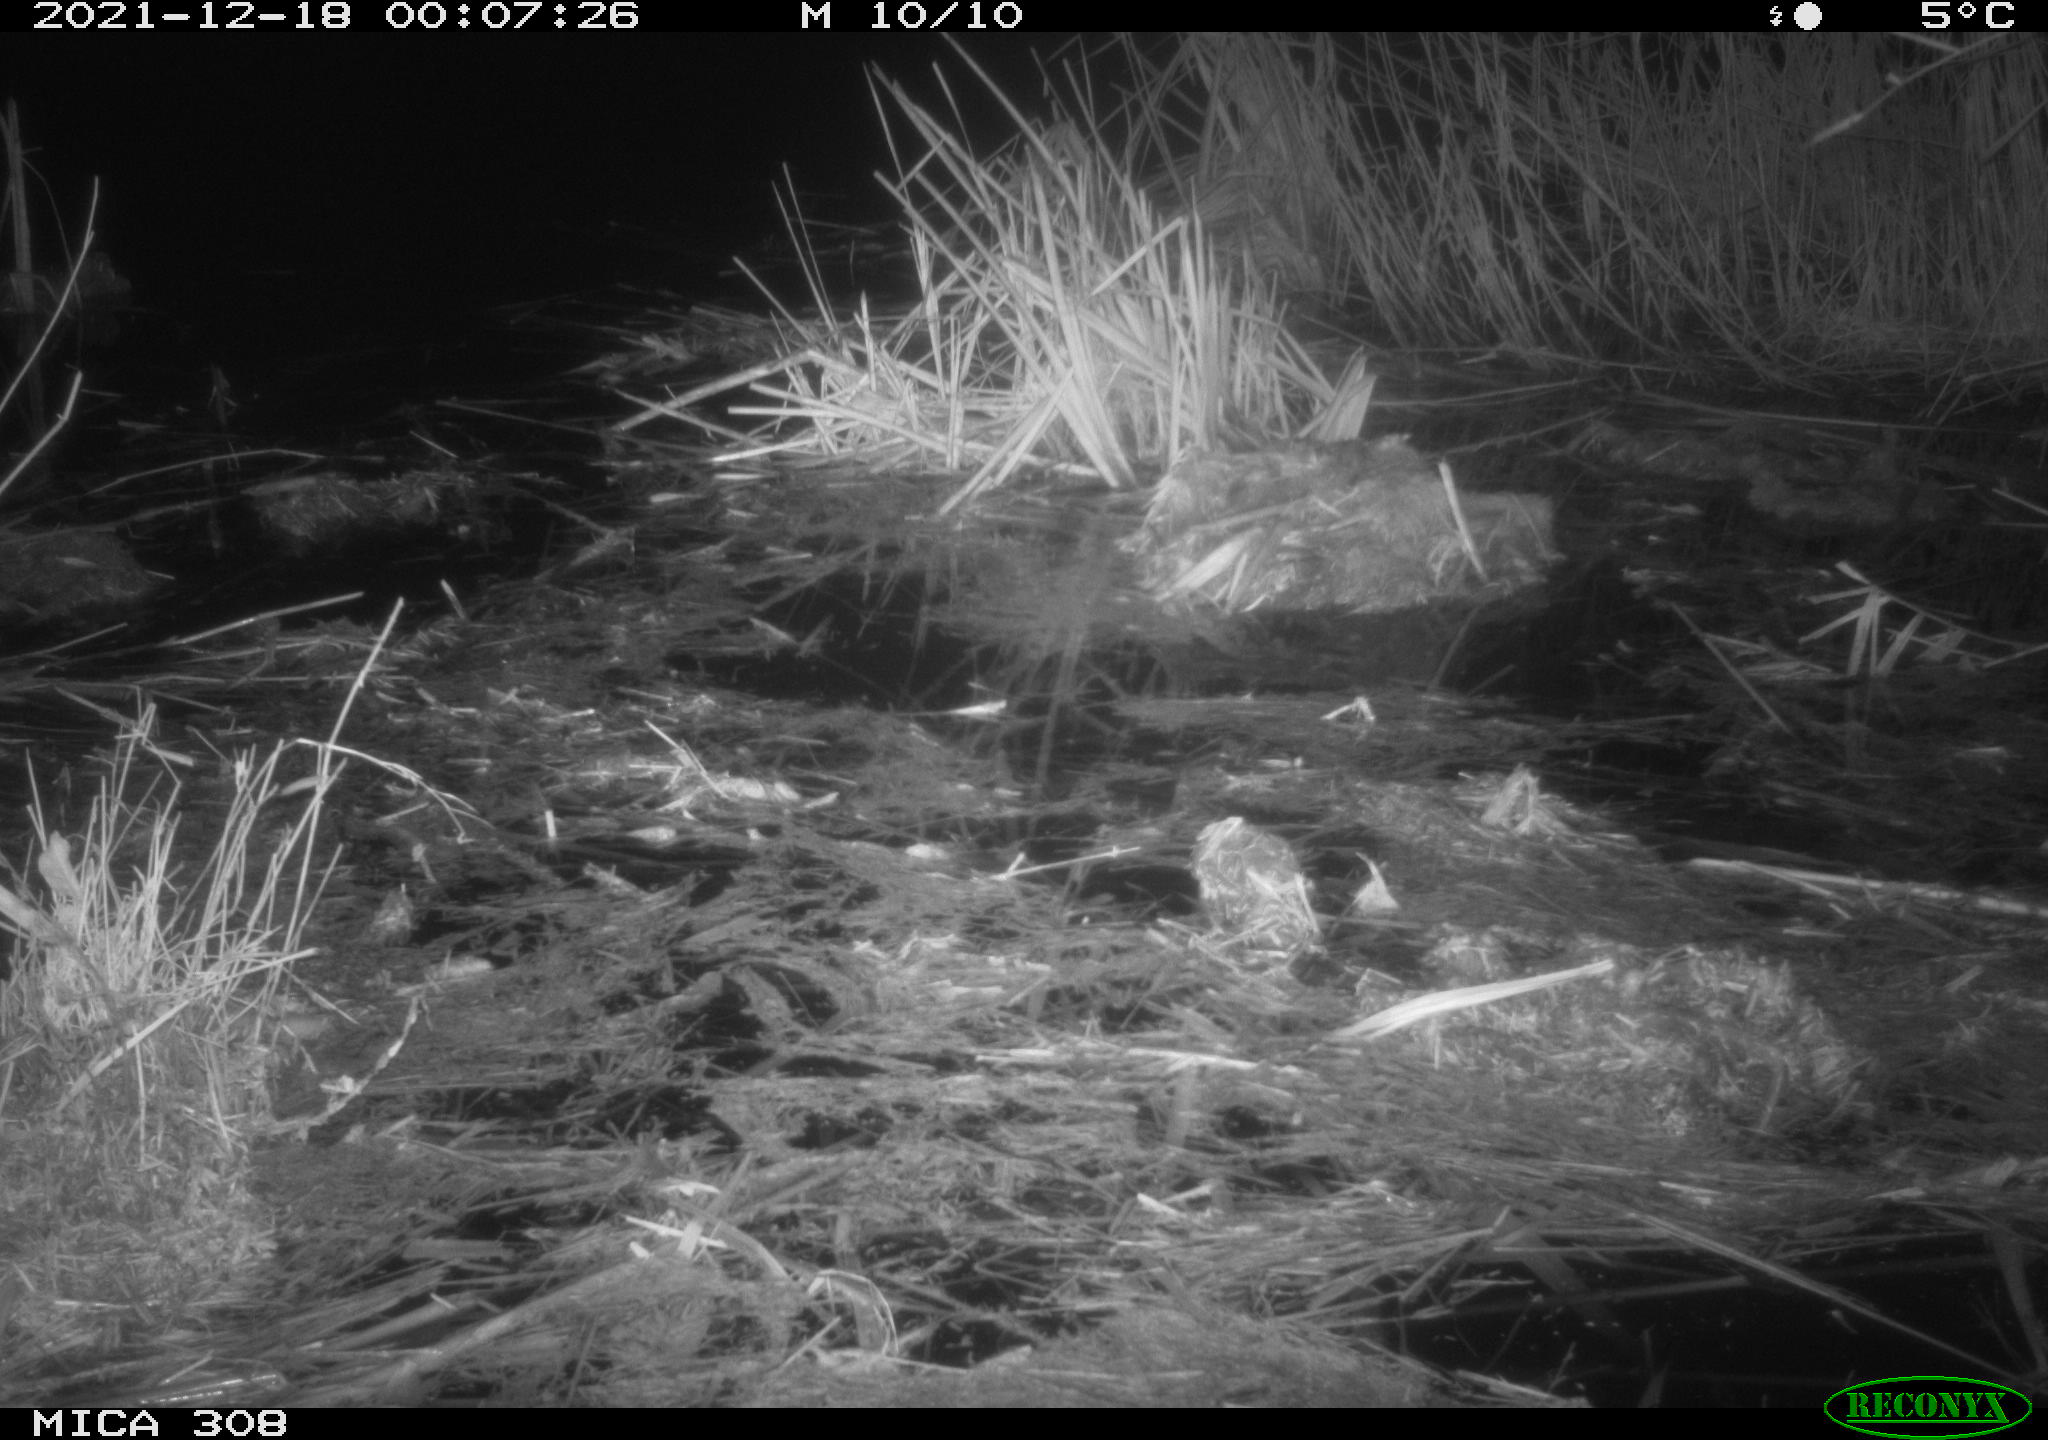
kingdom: Animalia
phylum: Chordata
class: Mammalia
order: Rodentia
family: Muridae
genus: Rattus
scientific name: Rattus norvegicus
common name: Brown rat
